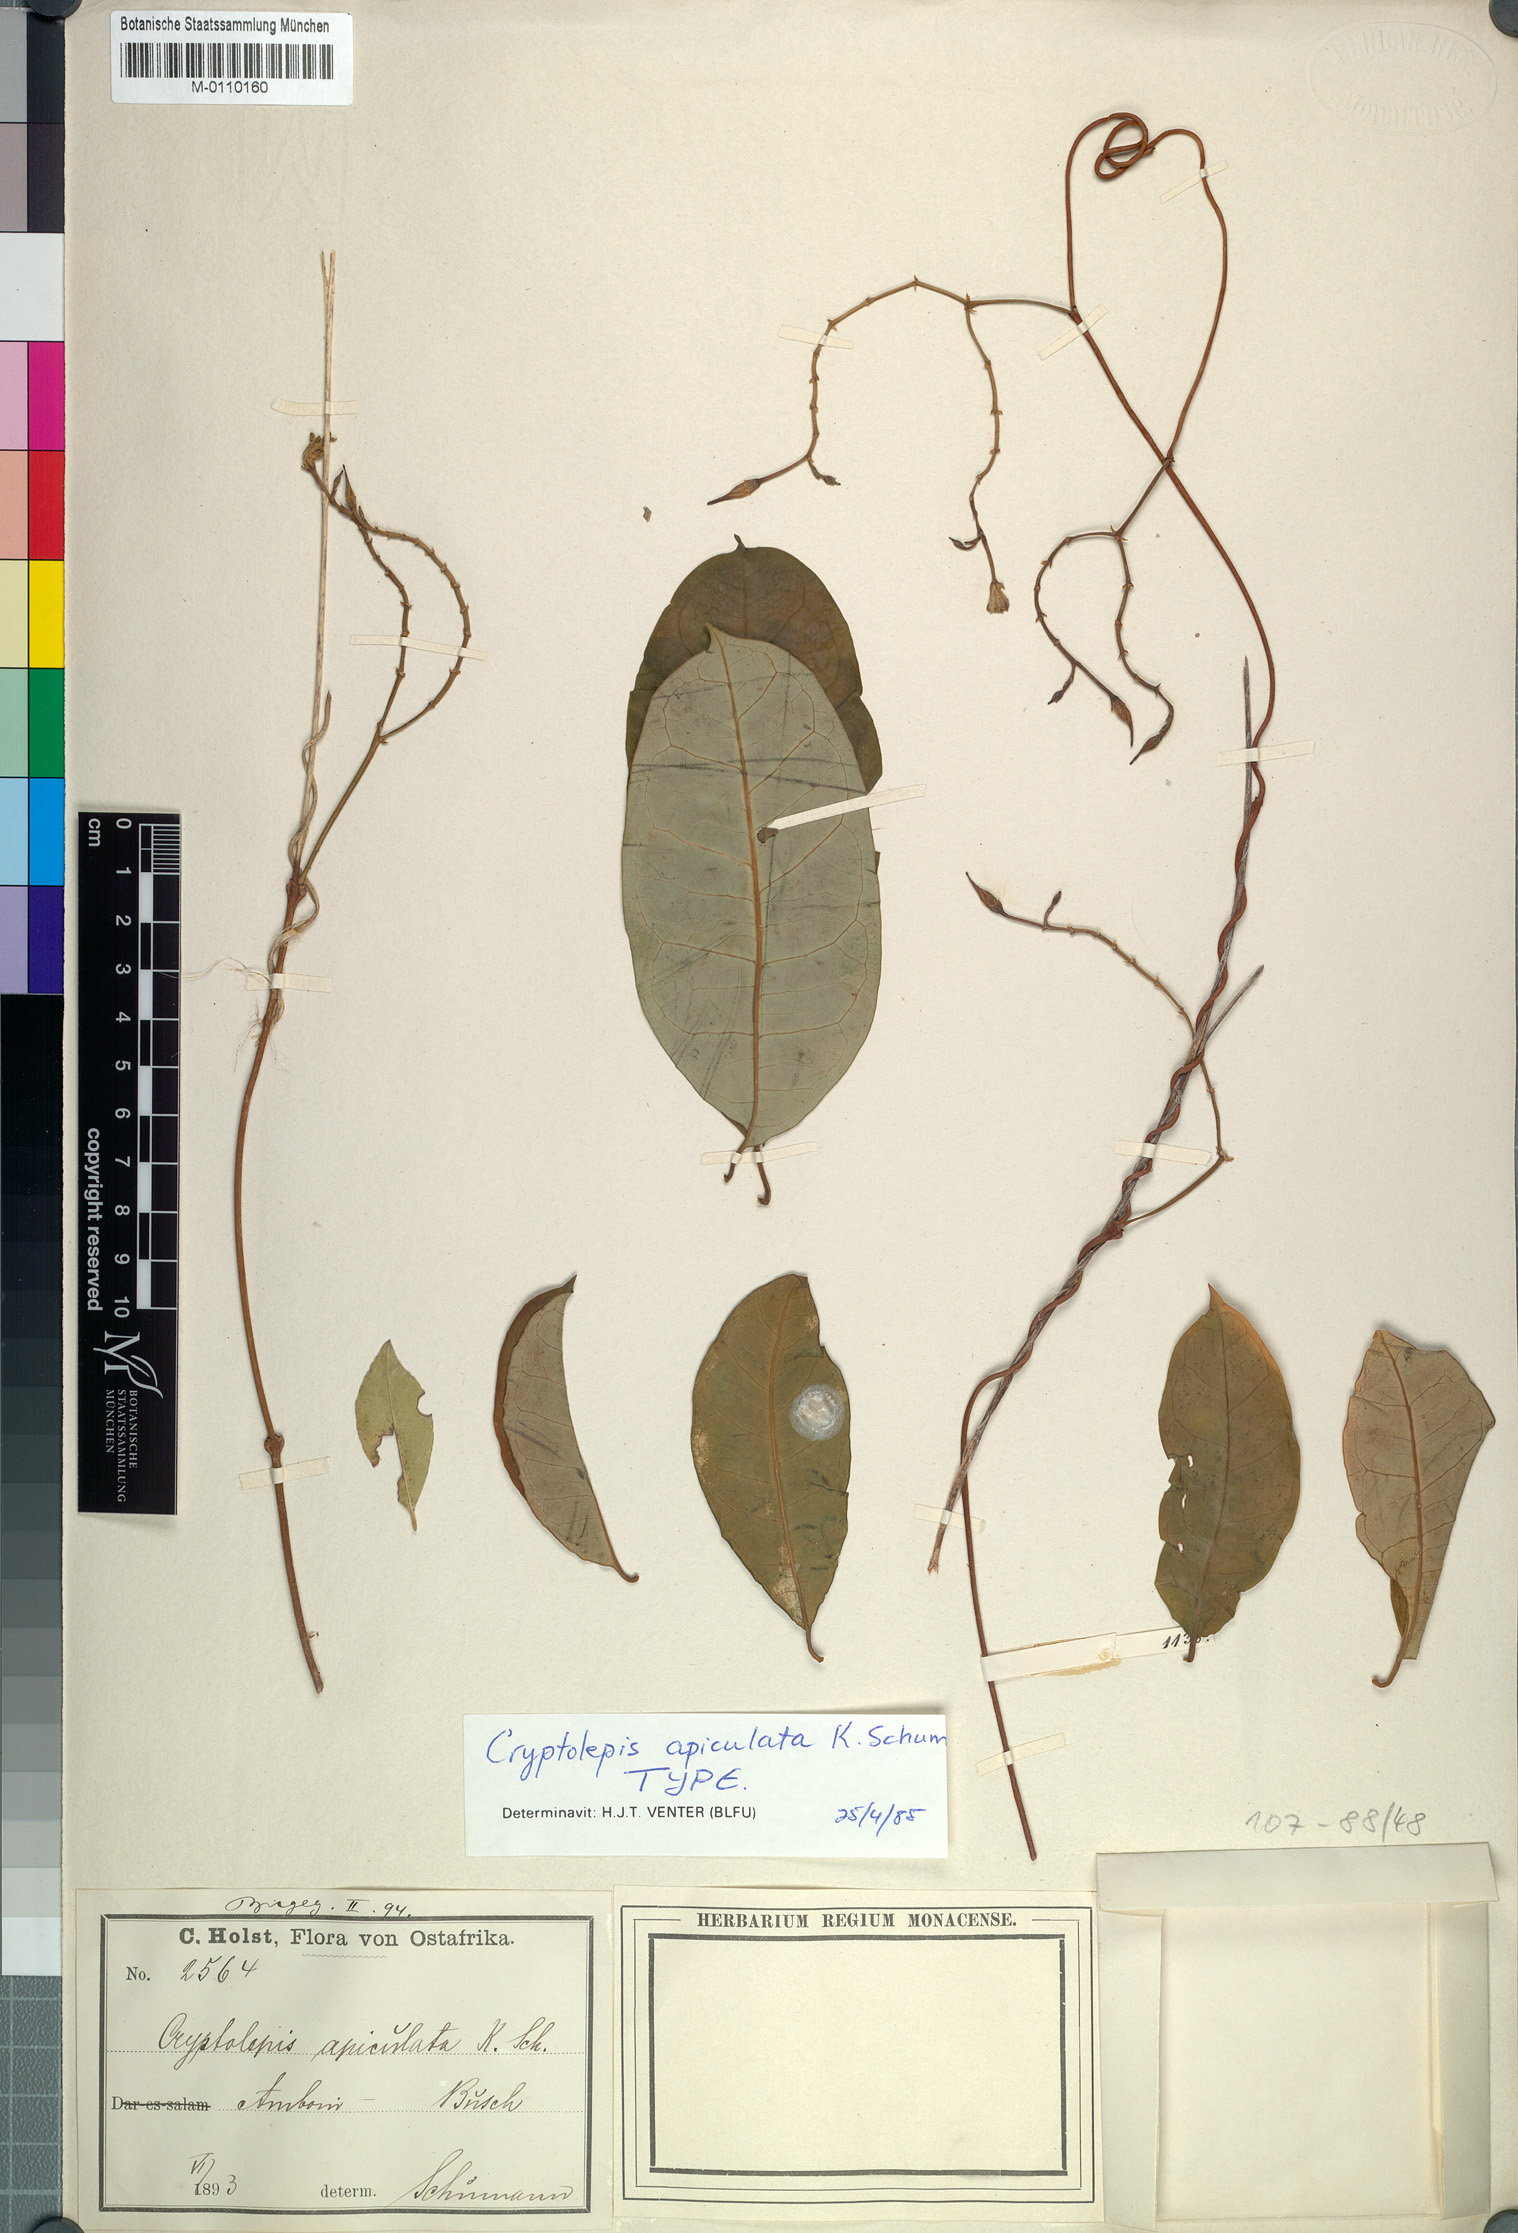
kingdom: Plantae
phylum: Tracheophyta
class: Magnoliopsida
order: Gentianales
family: Apocynaceae
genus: Cryptolepis
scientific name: Cryptolepis apiculata
